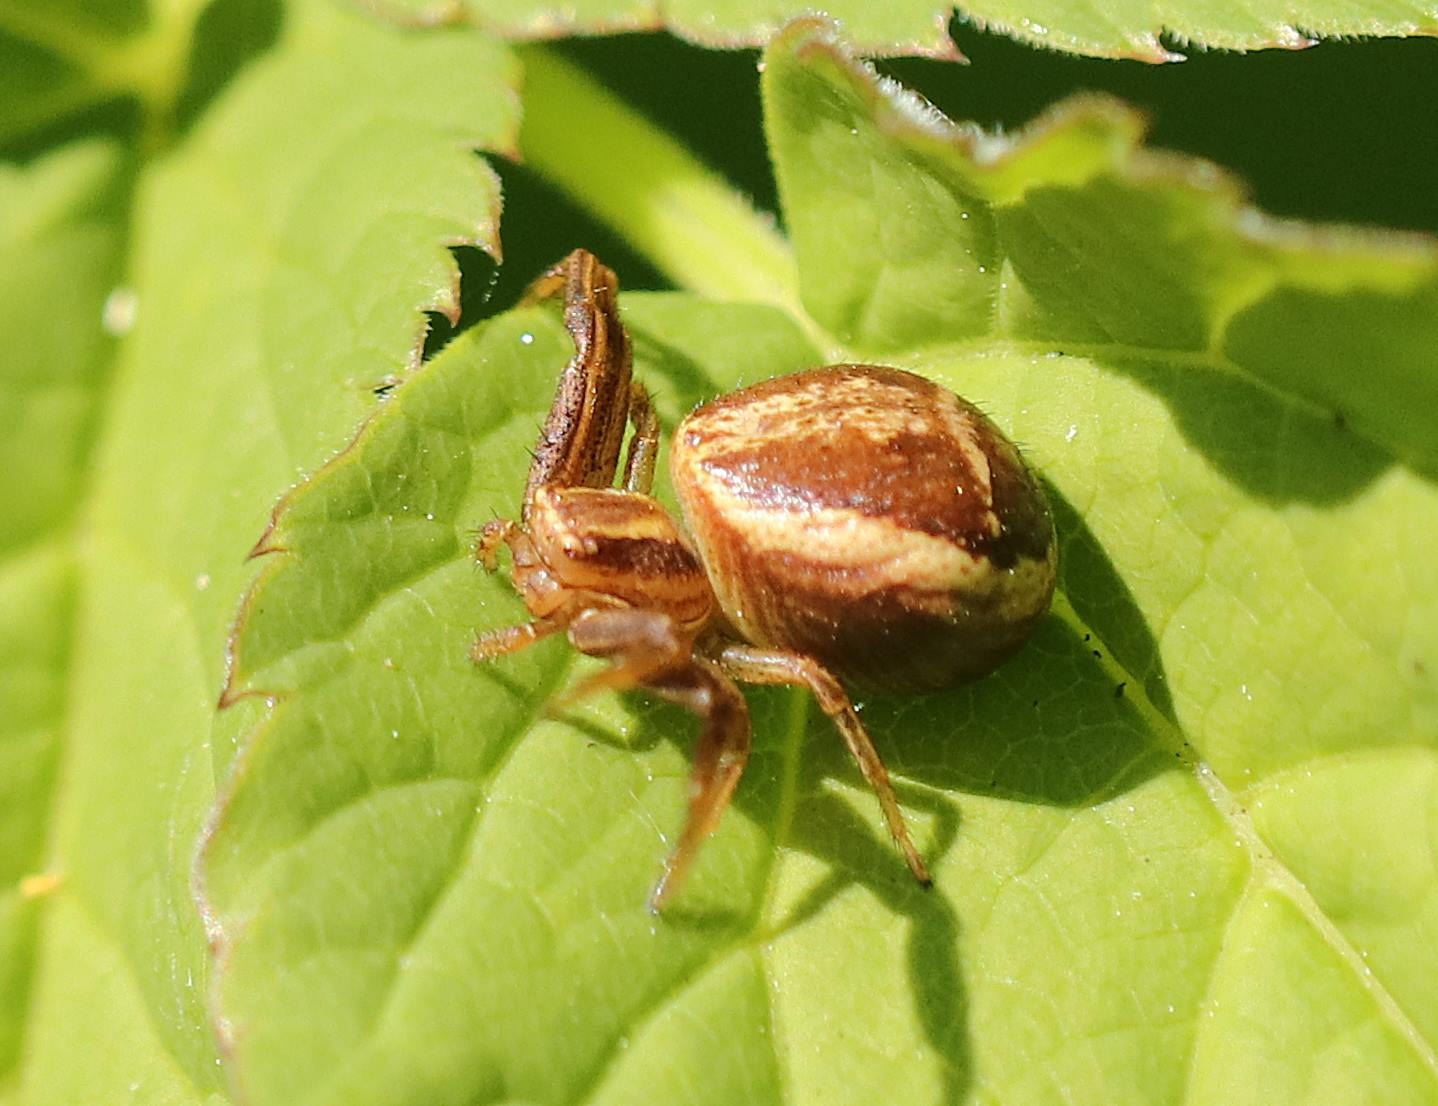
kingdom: Animalia
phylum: Arthropoda
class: Arachnida
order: Araneae
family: Thomisidae
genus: Xysticus
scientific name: Xysticus ulmi
